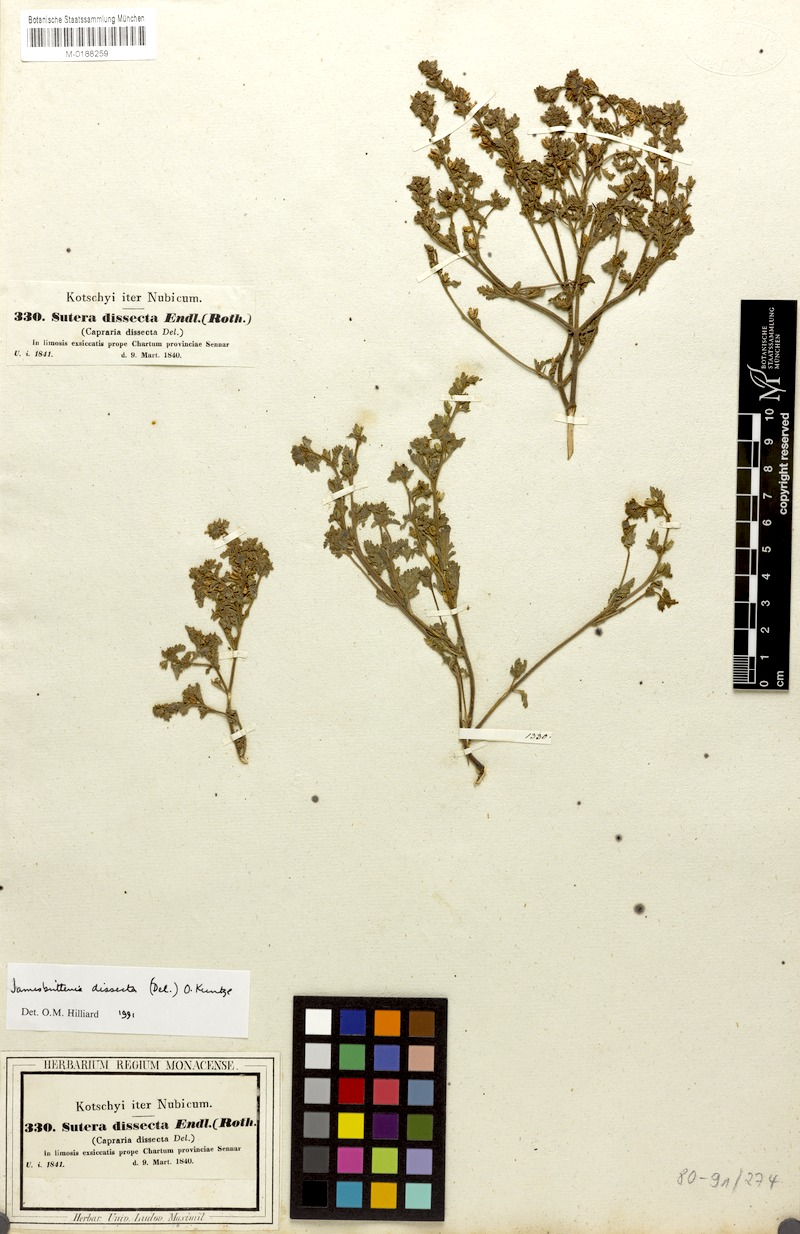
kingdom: Plantae
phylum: Tracheophyta
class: Magnoliopsida
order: Lamiales
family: Scrophulariaceae
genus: Jamesbrittenia
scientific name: Jamesbrittenia dissecta
